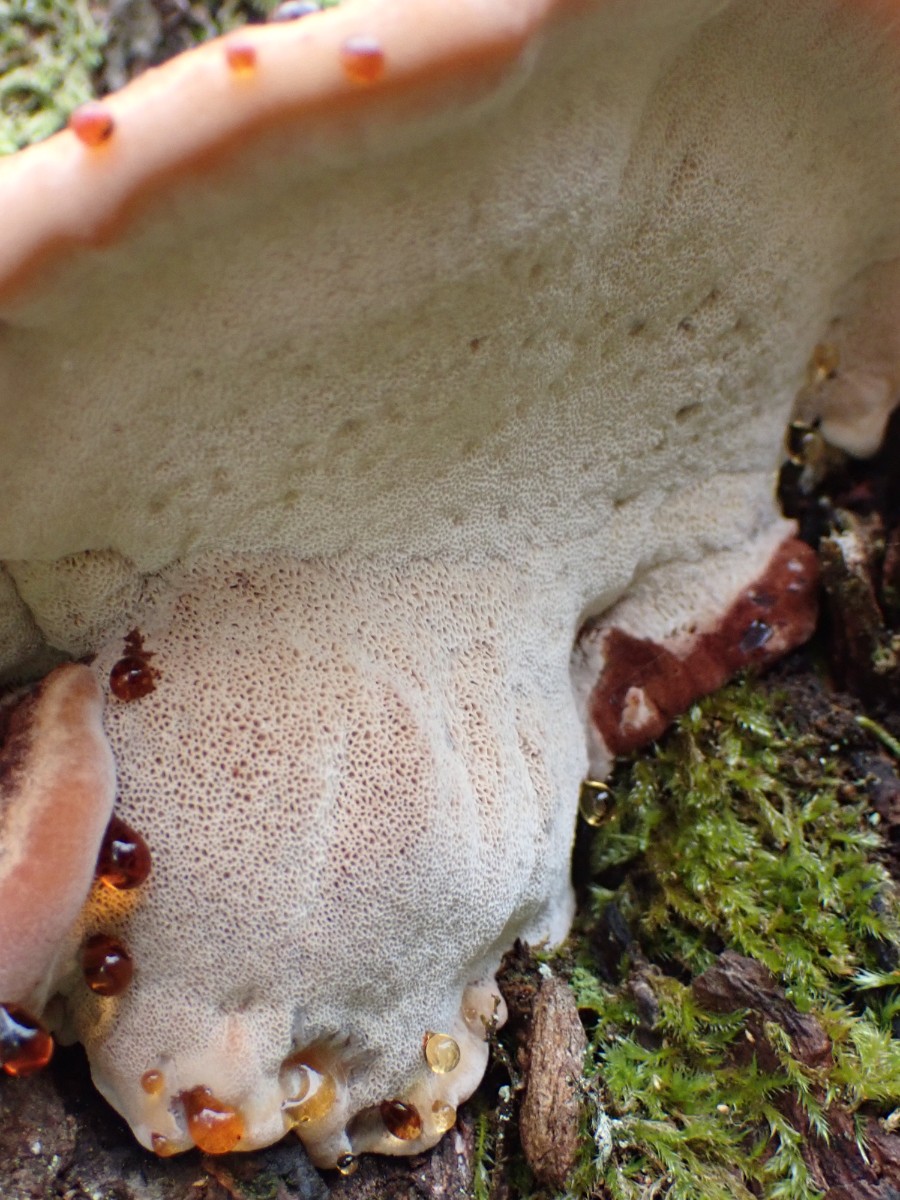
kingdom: Fungi
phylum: Basidiomycota
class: Agaricomycetes
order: Polyporales
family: Ischnodermataceae
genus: Ischnoderma
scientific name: Ischnoderma benzoinum
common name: gran-tjæreporesvamp
